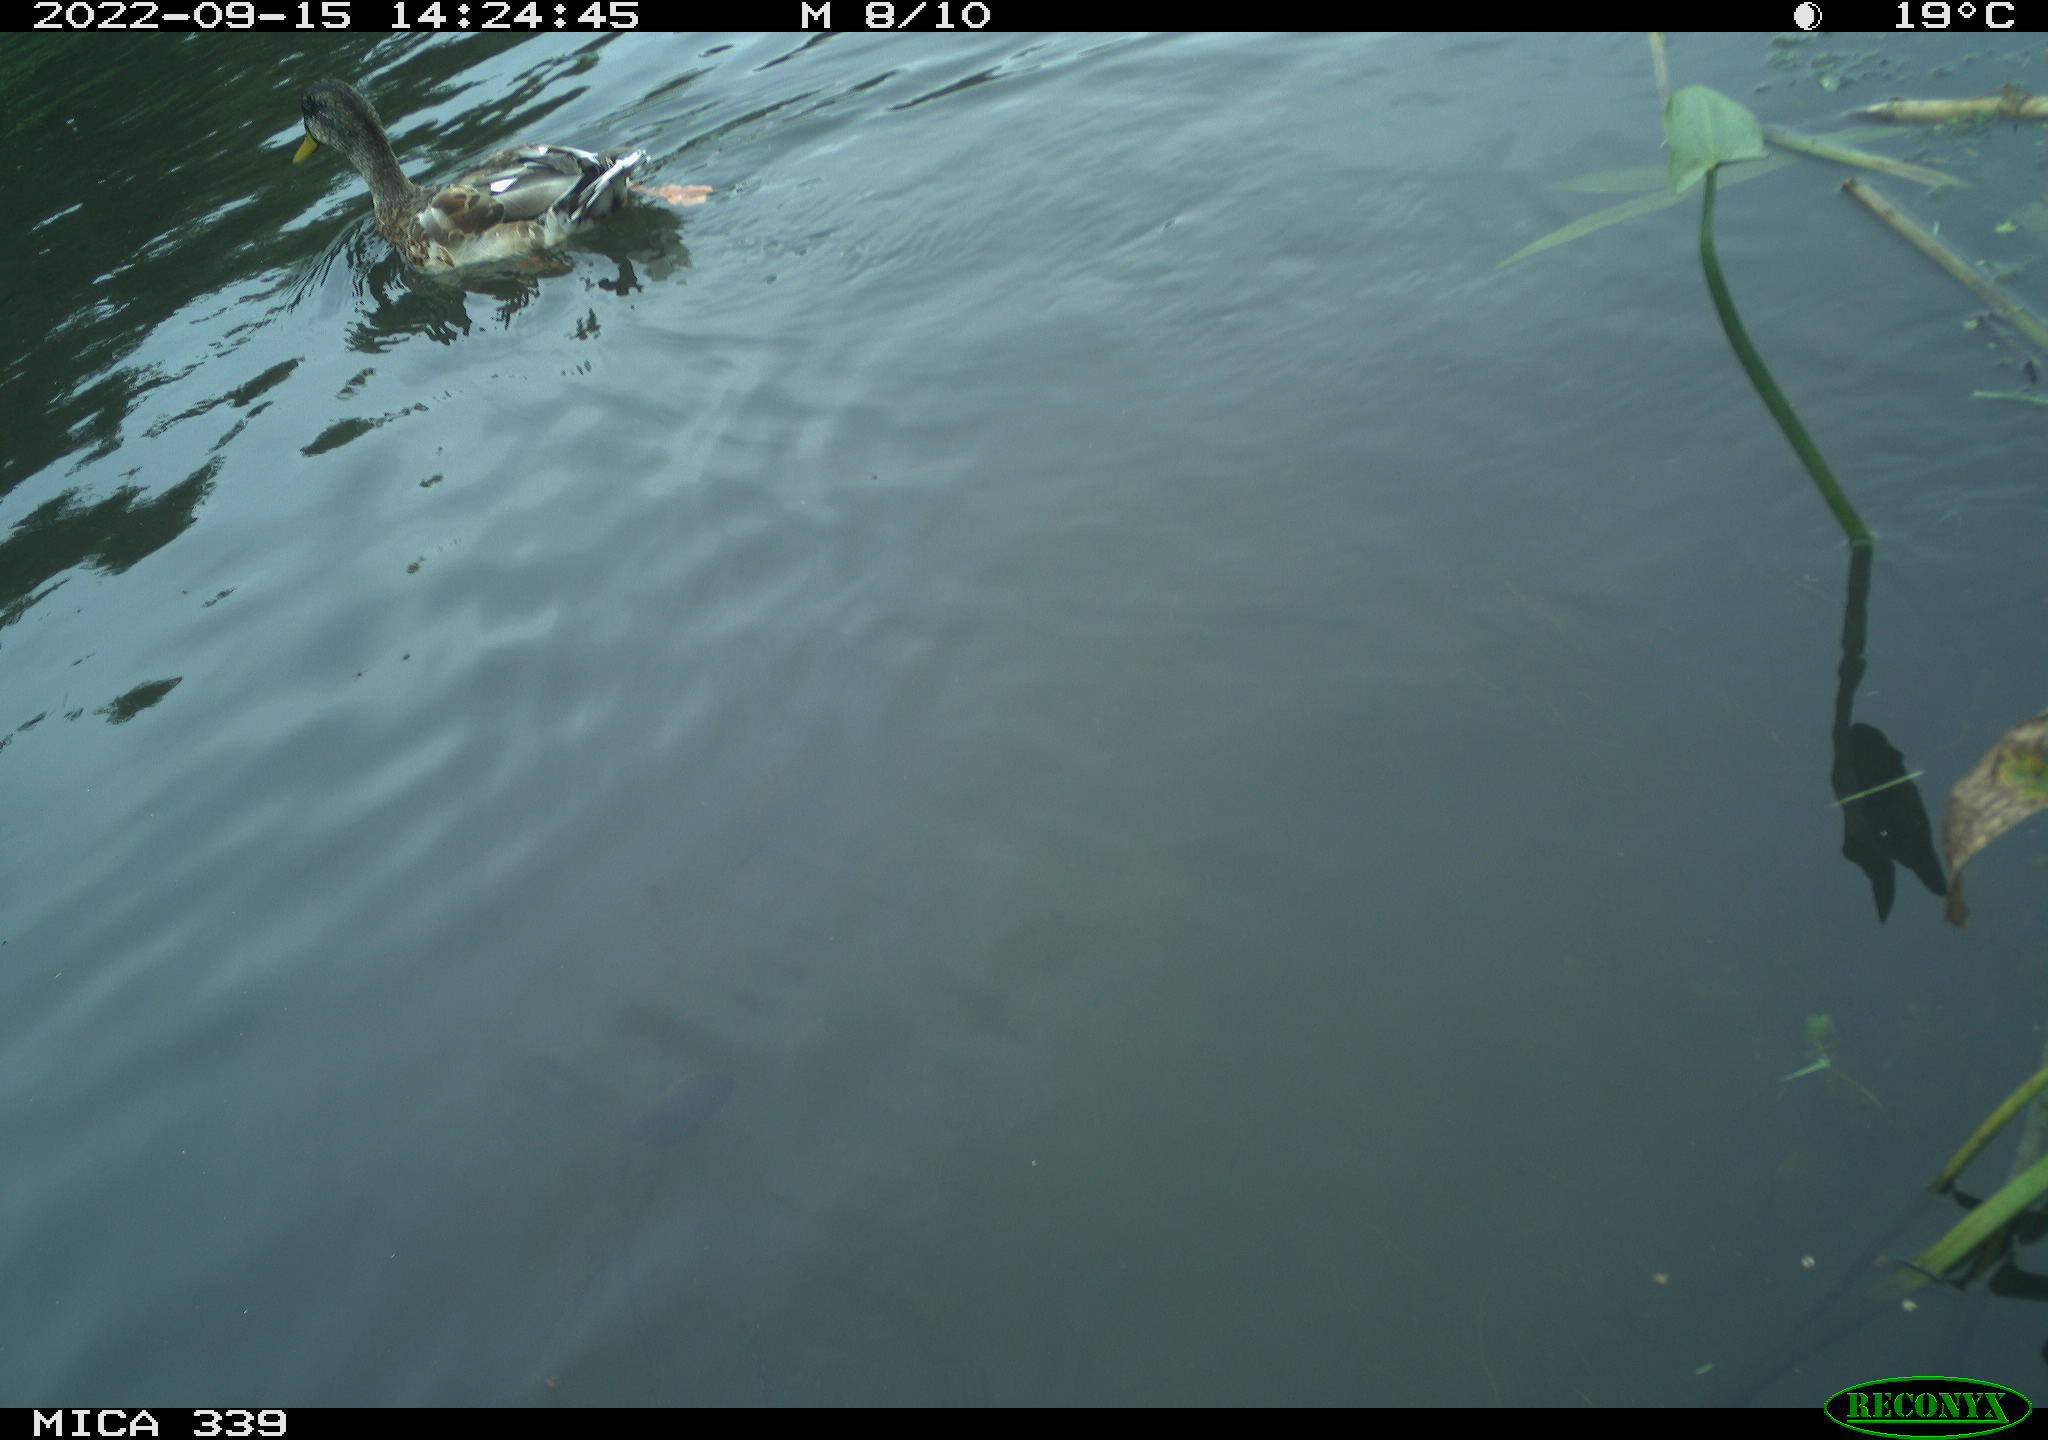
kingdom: Animalia
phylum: Chordata
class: Aves
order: Anseriformes
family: Anatidae
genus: Anas
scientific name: Anas
